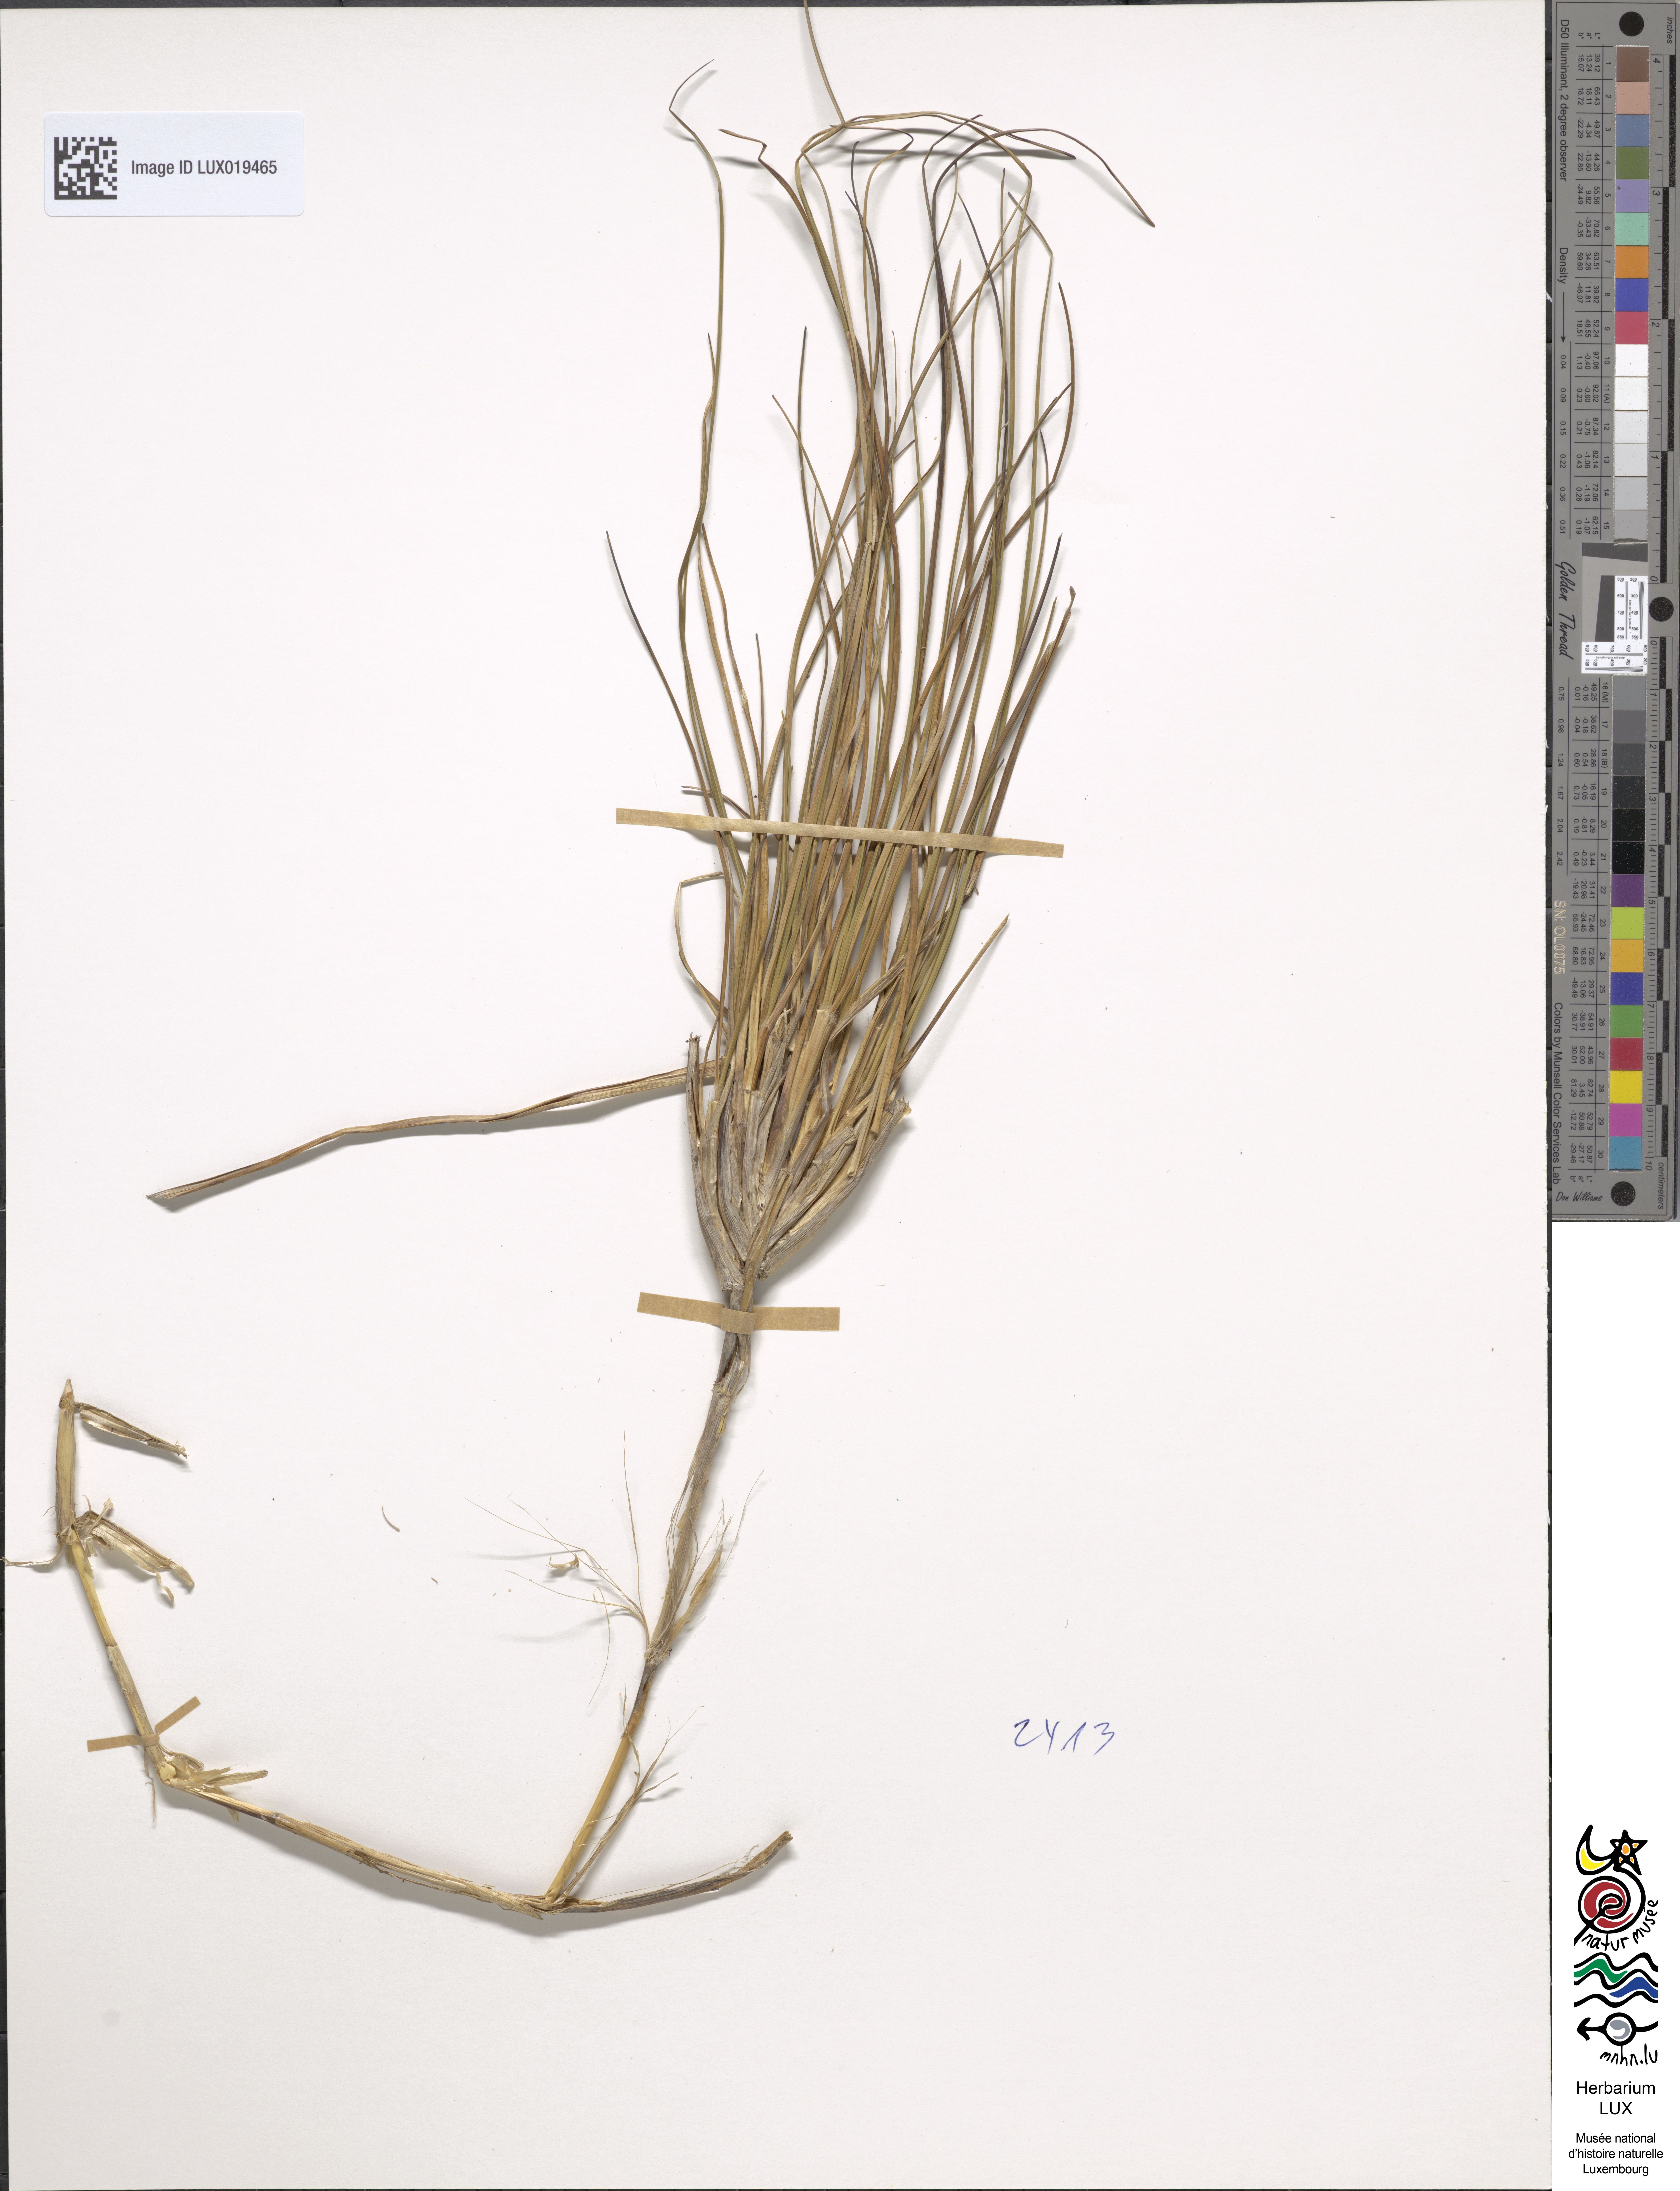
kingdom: Plantae
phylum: Tracheophyta
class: Liliopsida
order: Poales
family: Poaceae
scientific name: Poaceae
